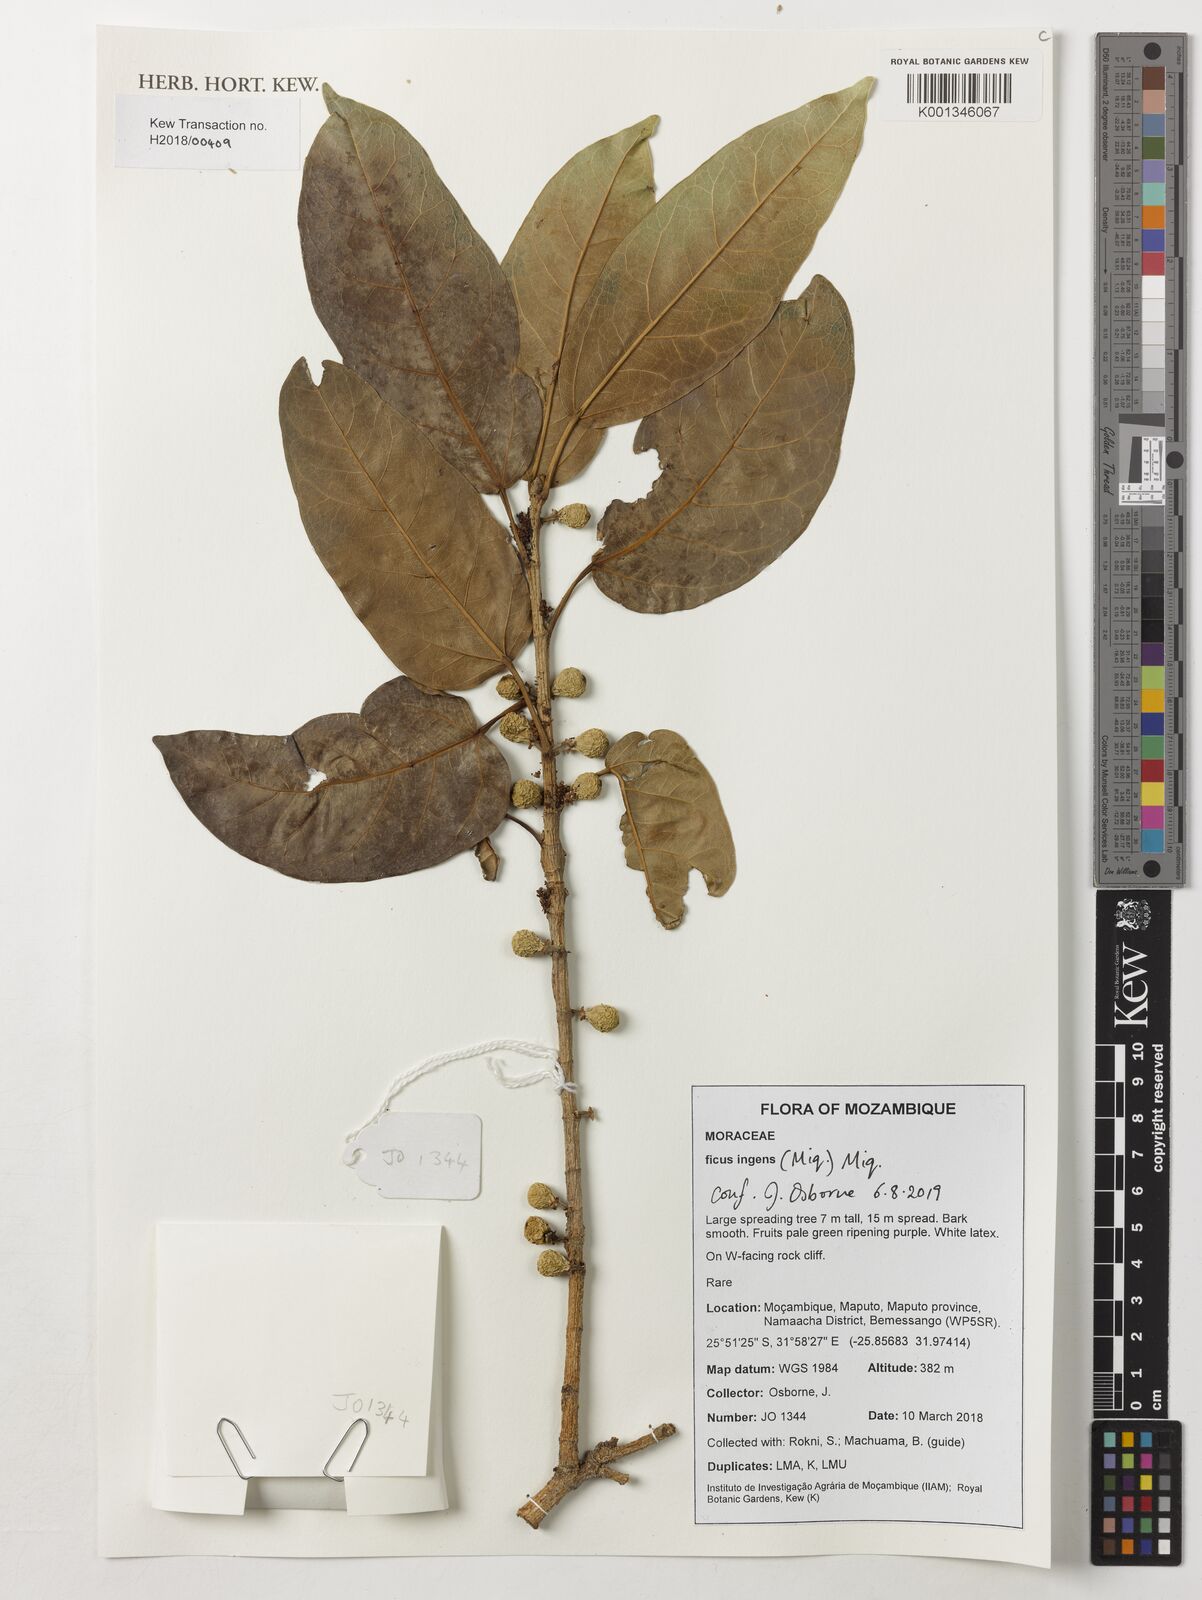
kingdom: Plantae
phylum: Tracheophyta
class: Magnoliopsida
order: Rosales
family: Moraceae
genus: Ficus
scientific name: Ficus ingens
